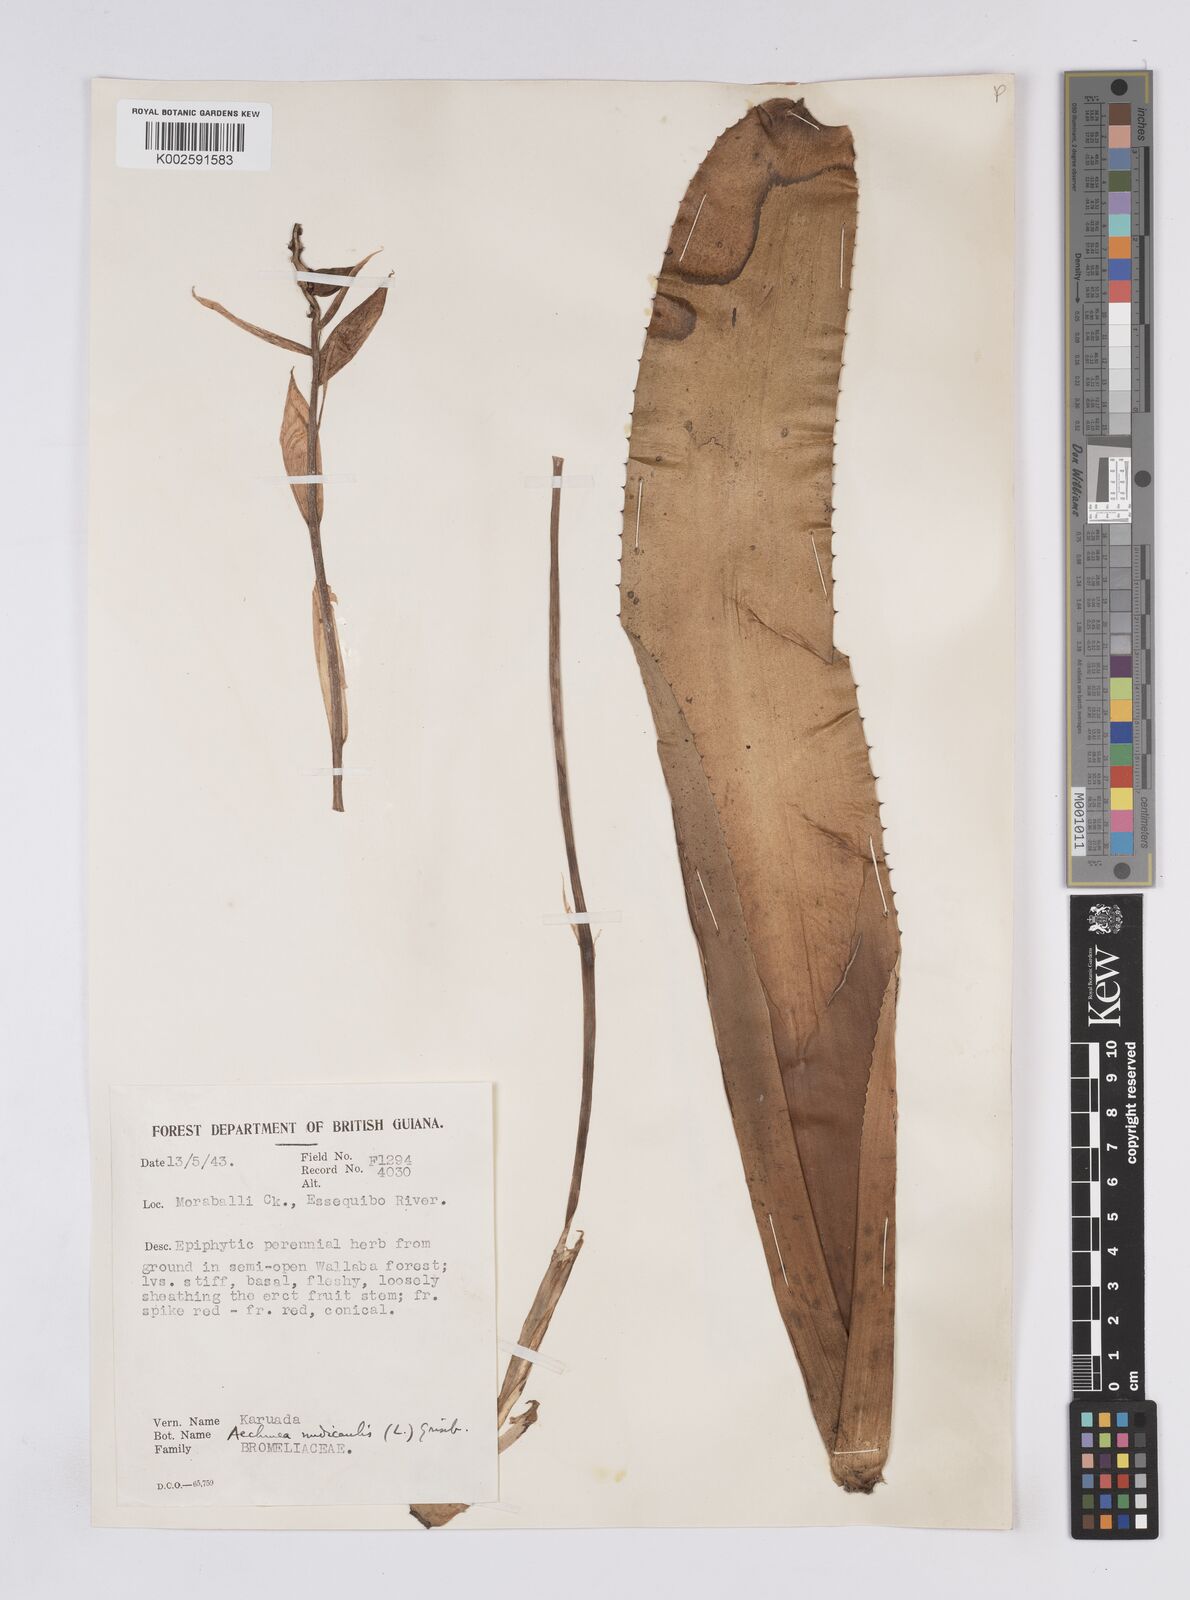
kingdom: Plantae
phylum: Tracheophyta
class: Liliopsida
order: Poales
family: Bromeliaceae
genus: Aechmea
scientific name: Aechmea nudicaulis
